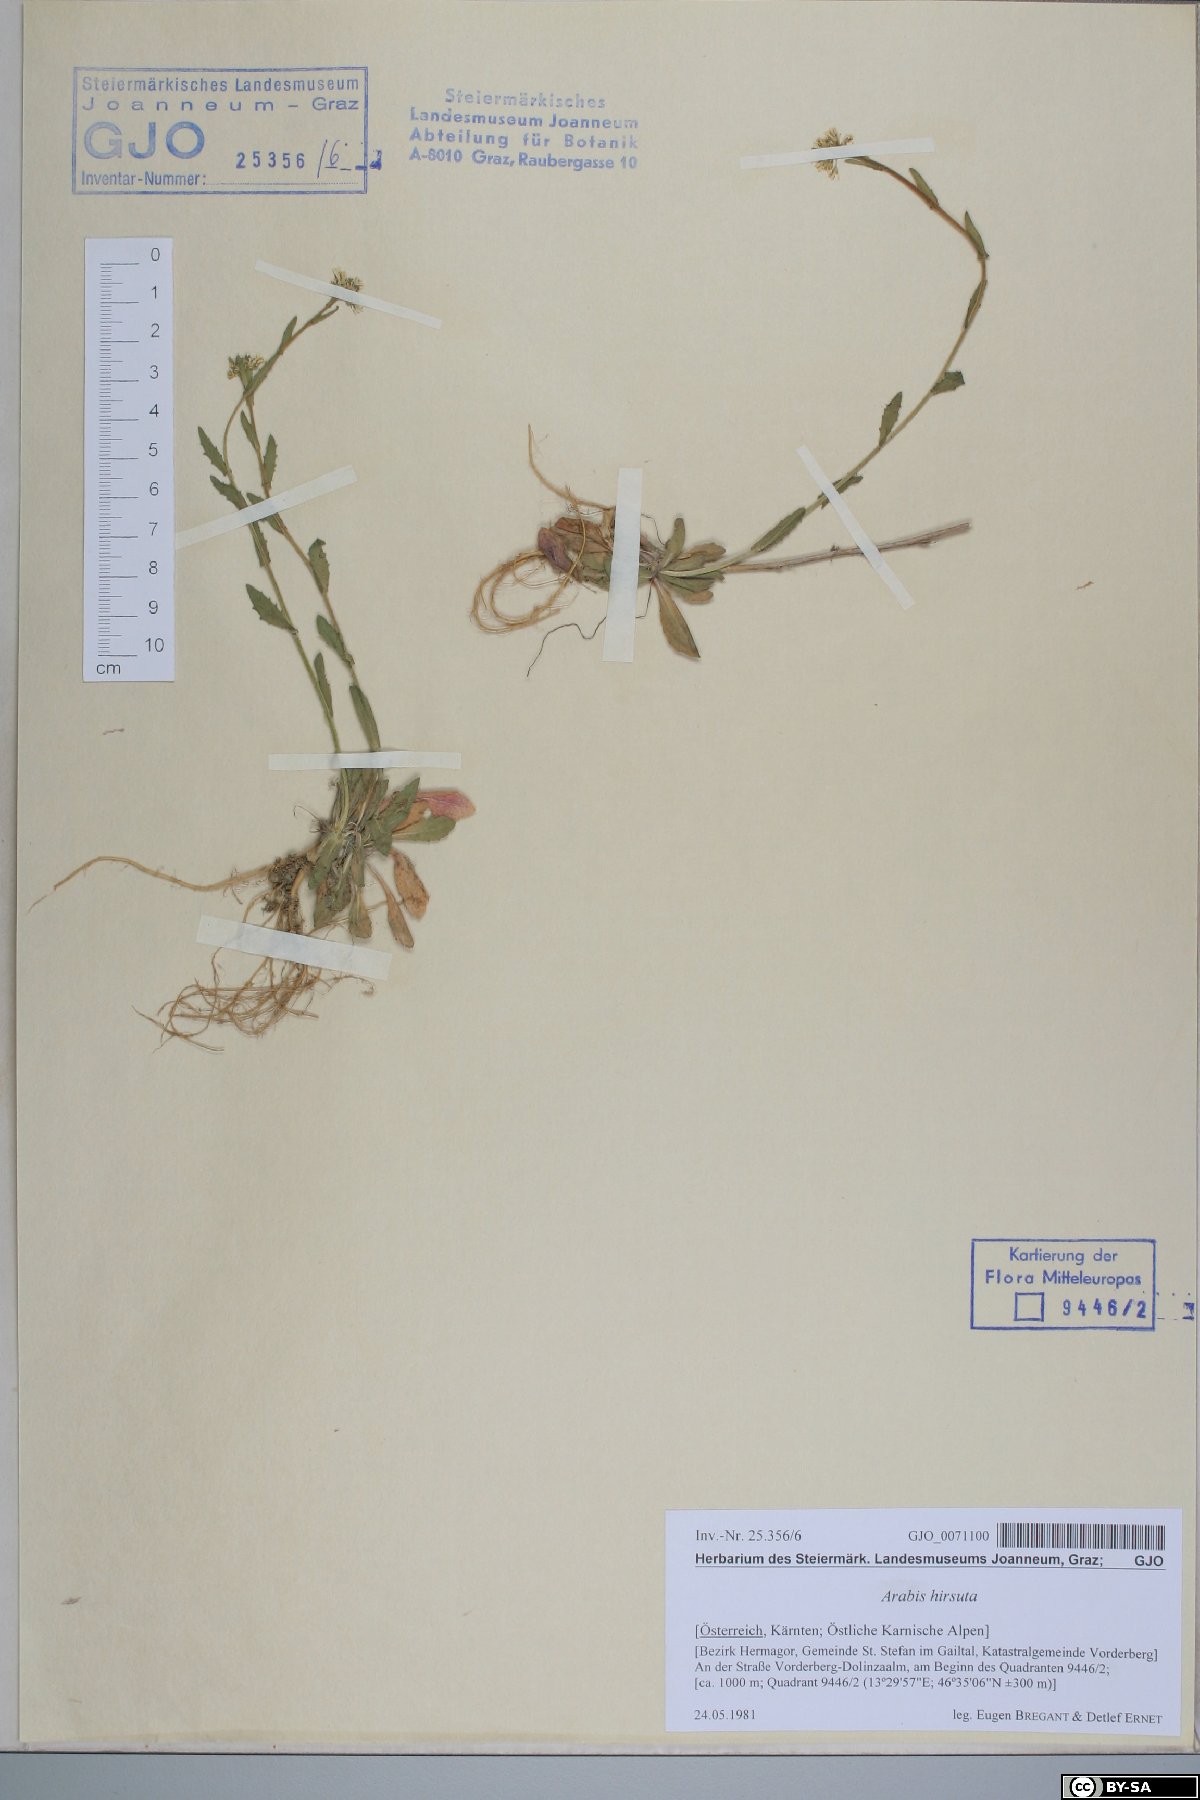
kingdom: Plantae
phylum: Tracheophyta
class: Magnoliopsida
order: Brassicales
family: Brassicaceae
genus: Arabis
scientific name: Arabis hirsuta
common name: Hairy rock-cress
